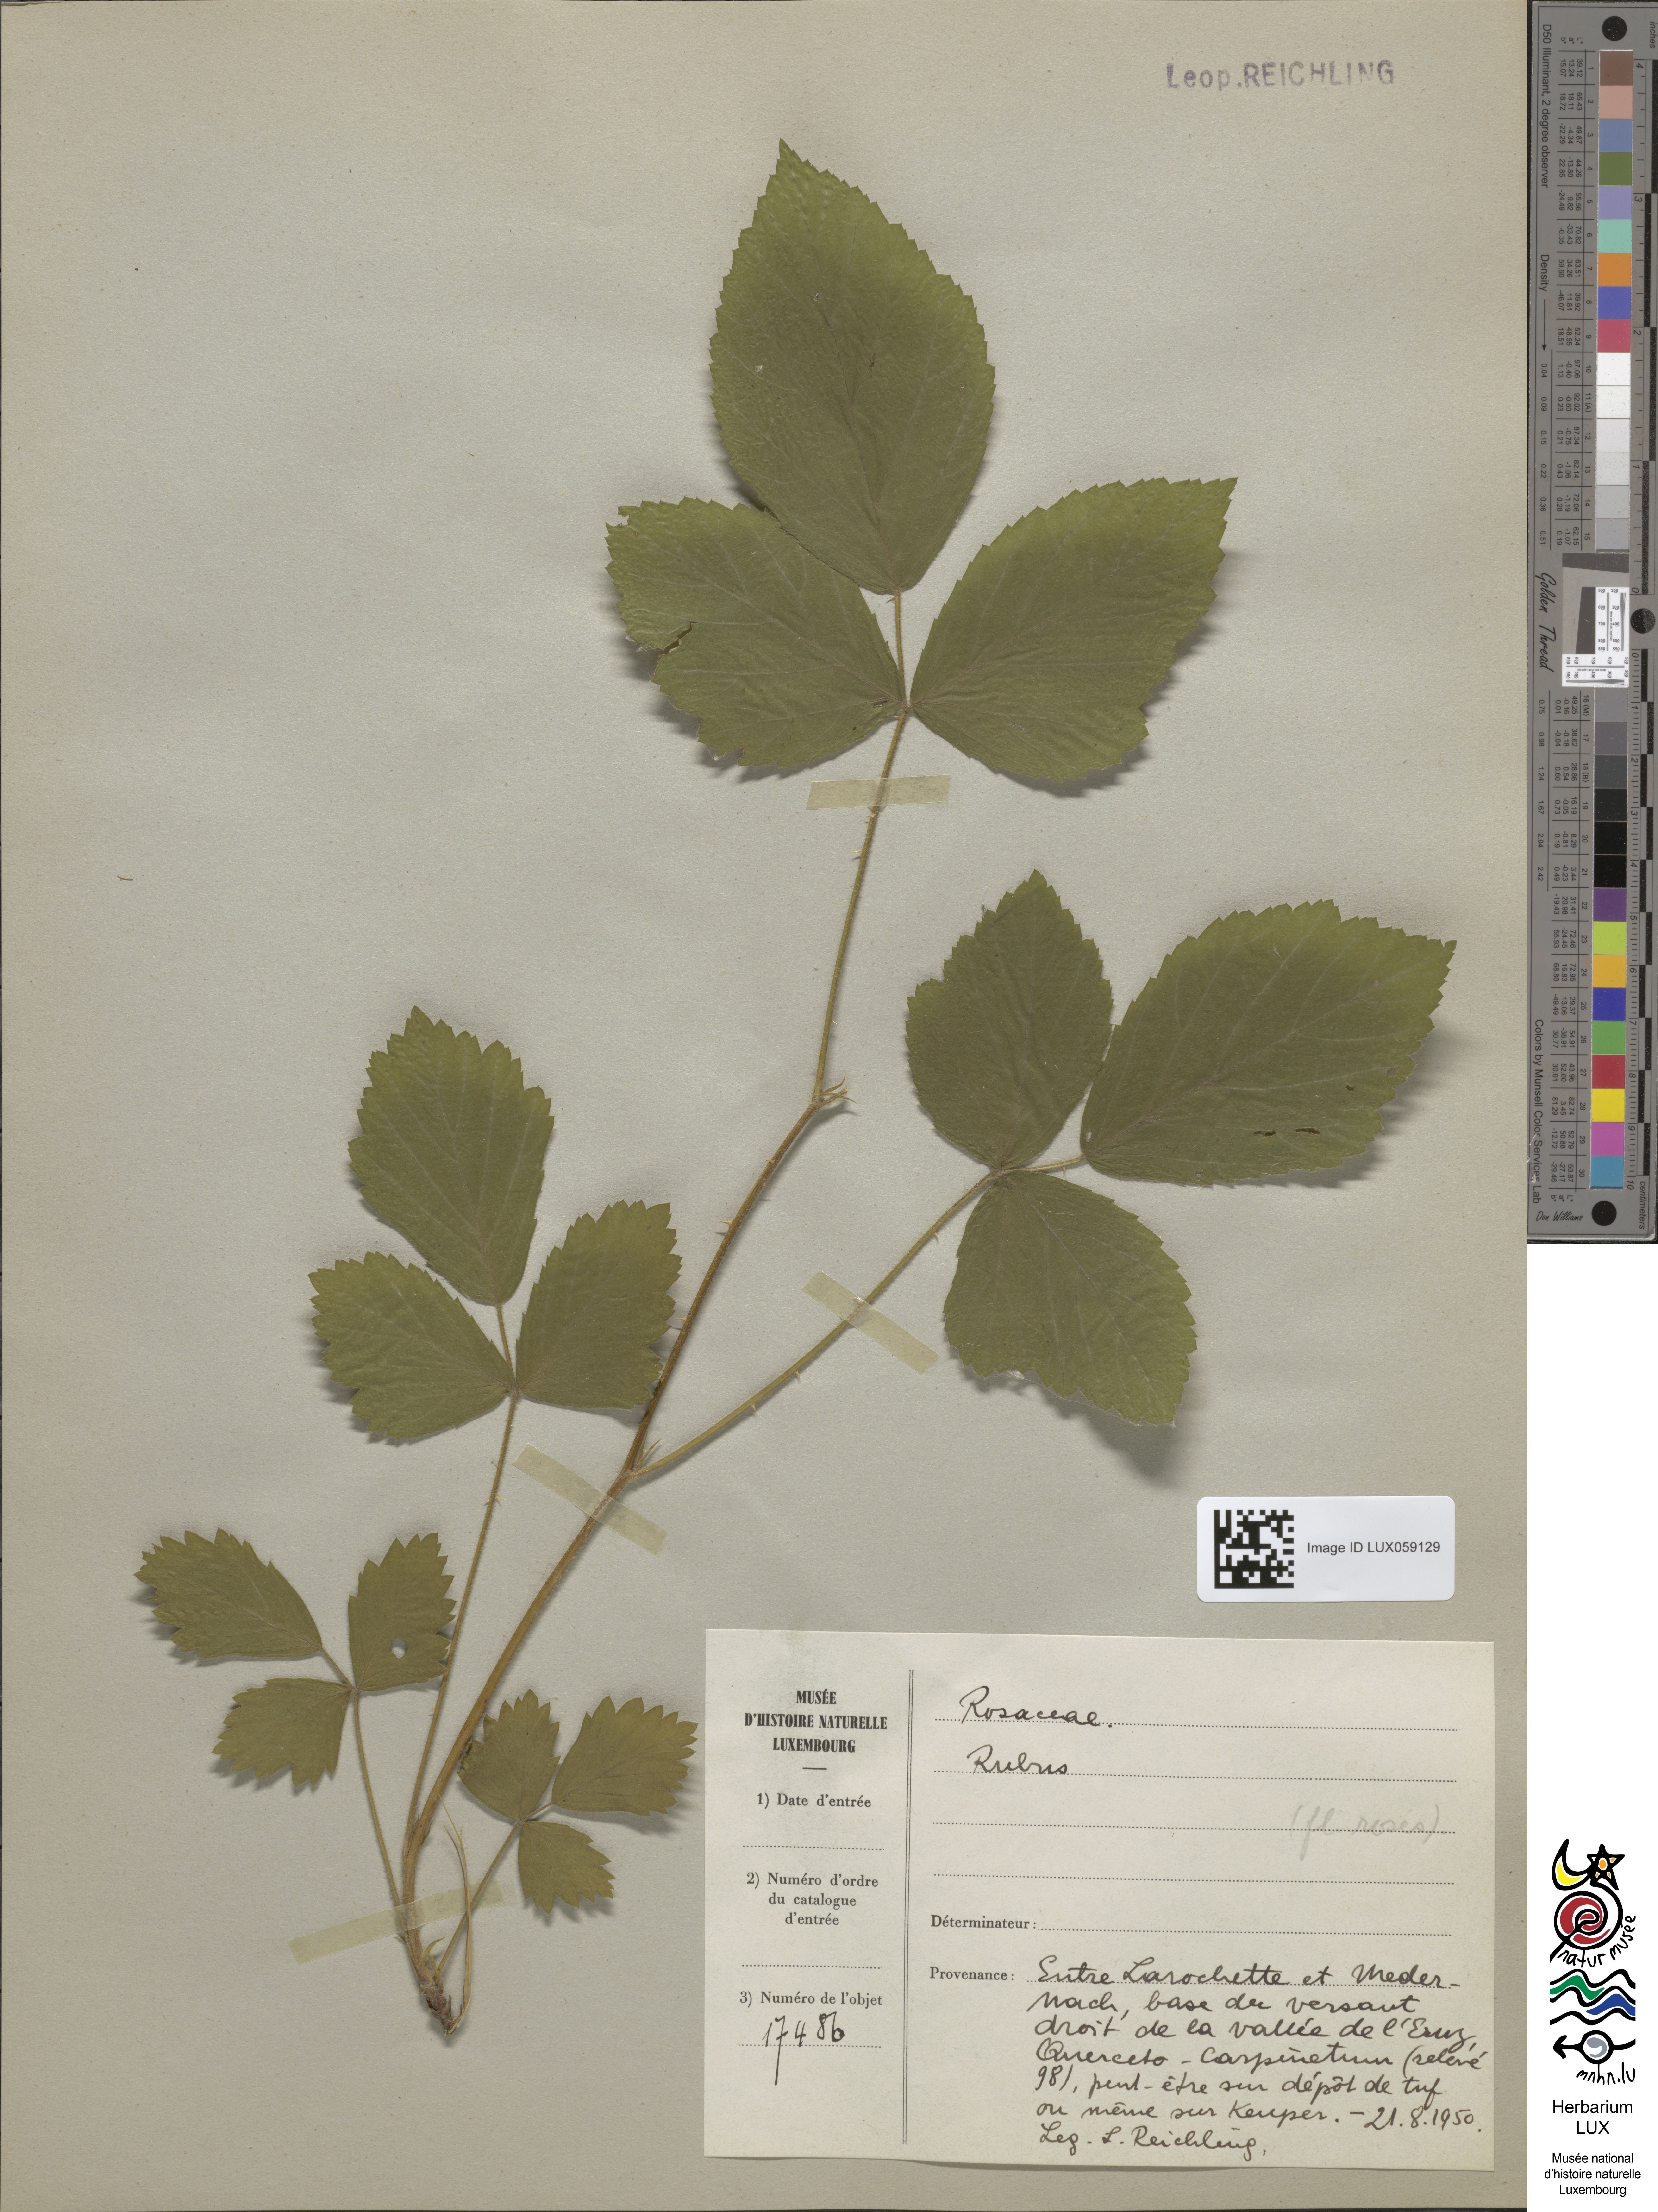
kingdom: Plantae
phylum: Tracheophyta
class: Magnoliopsida
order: Rosales
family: Rosaceae
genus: Rubus
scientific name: Rubus
